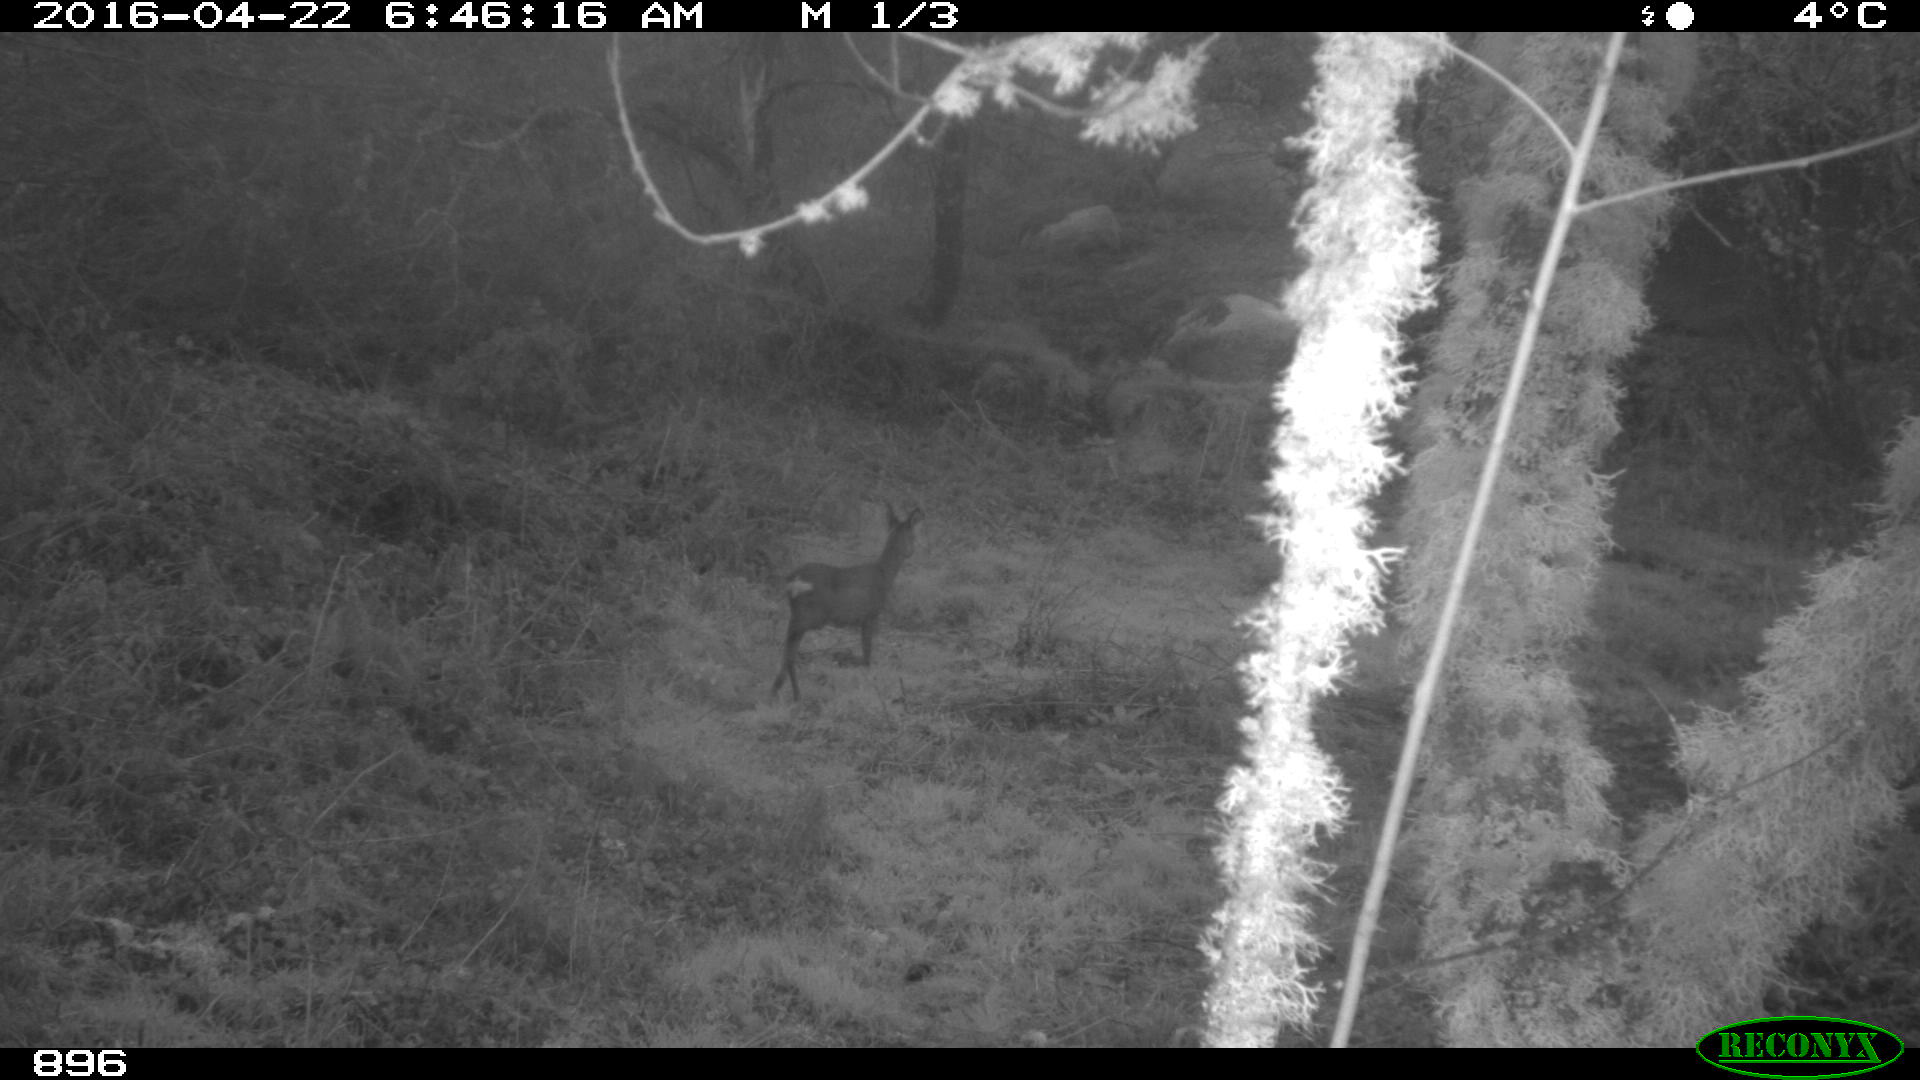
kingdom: Animalia
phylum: Chordata
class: Mammalia
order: Artiodactyla
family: Cervidae
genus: Capreolus
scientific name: Capreolus capreolus
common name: Western roe deer
